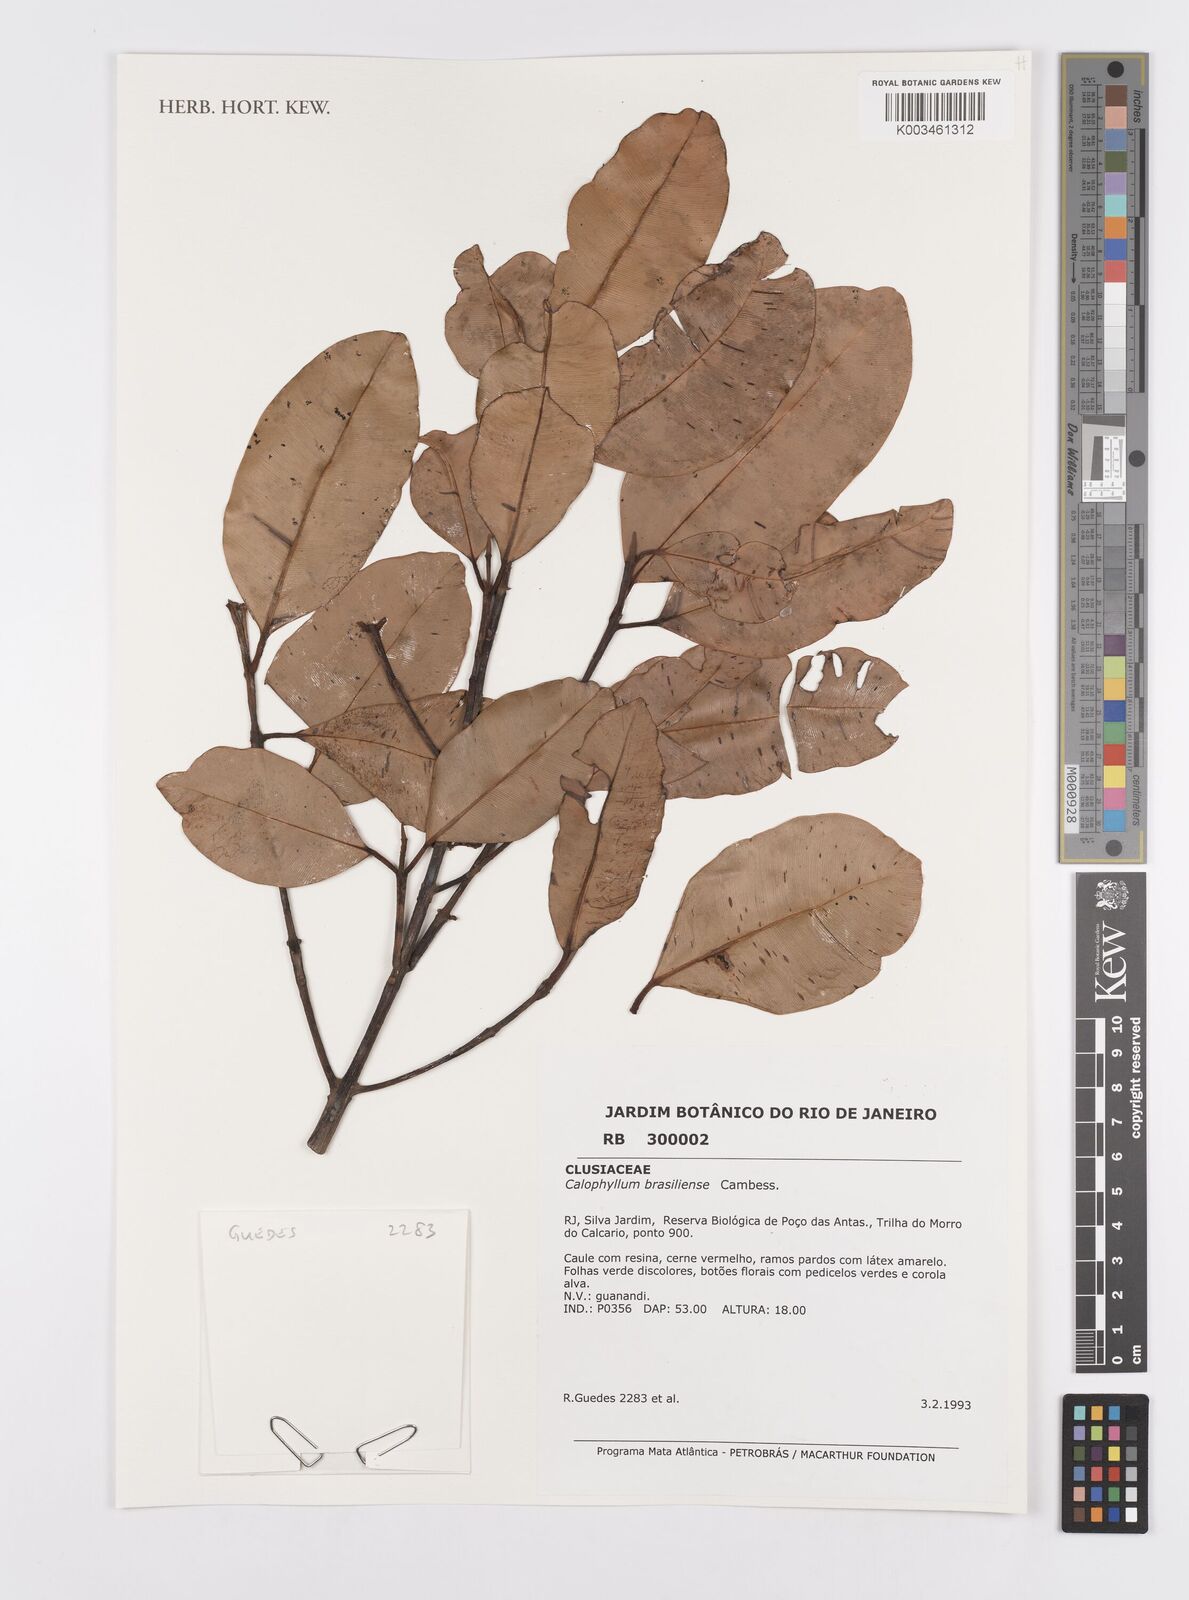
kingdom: Plantae
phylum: Tracheophyta
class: Magnoliopsida
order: Malpighiales
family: Calophyllaceae
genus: Calophyllum
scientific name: Calophyllum brasiliense
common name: Santa maria
